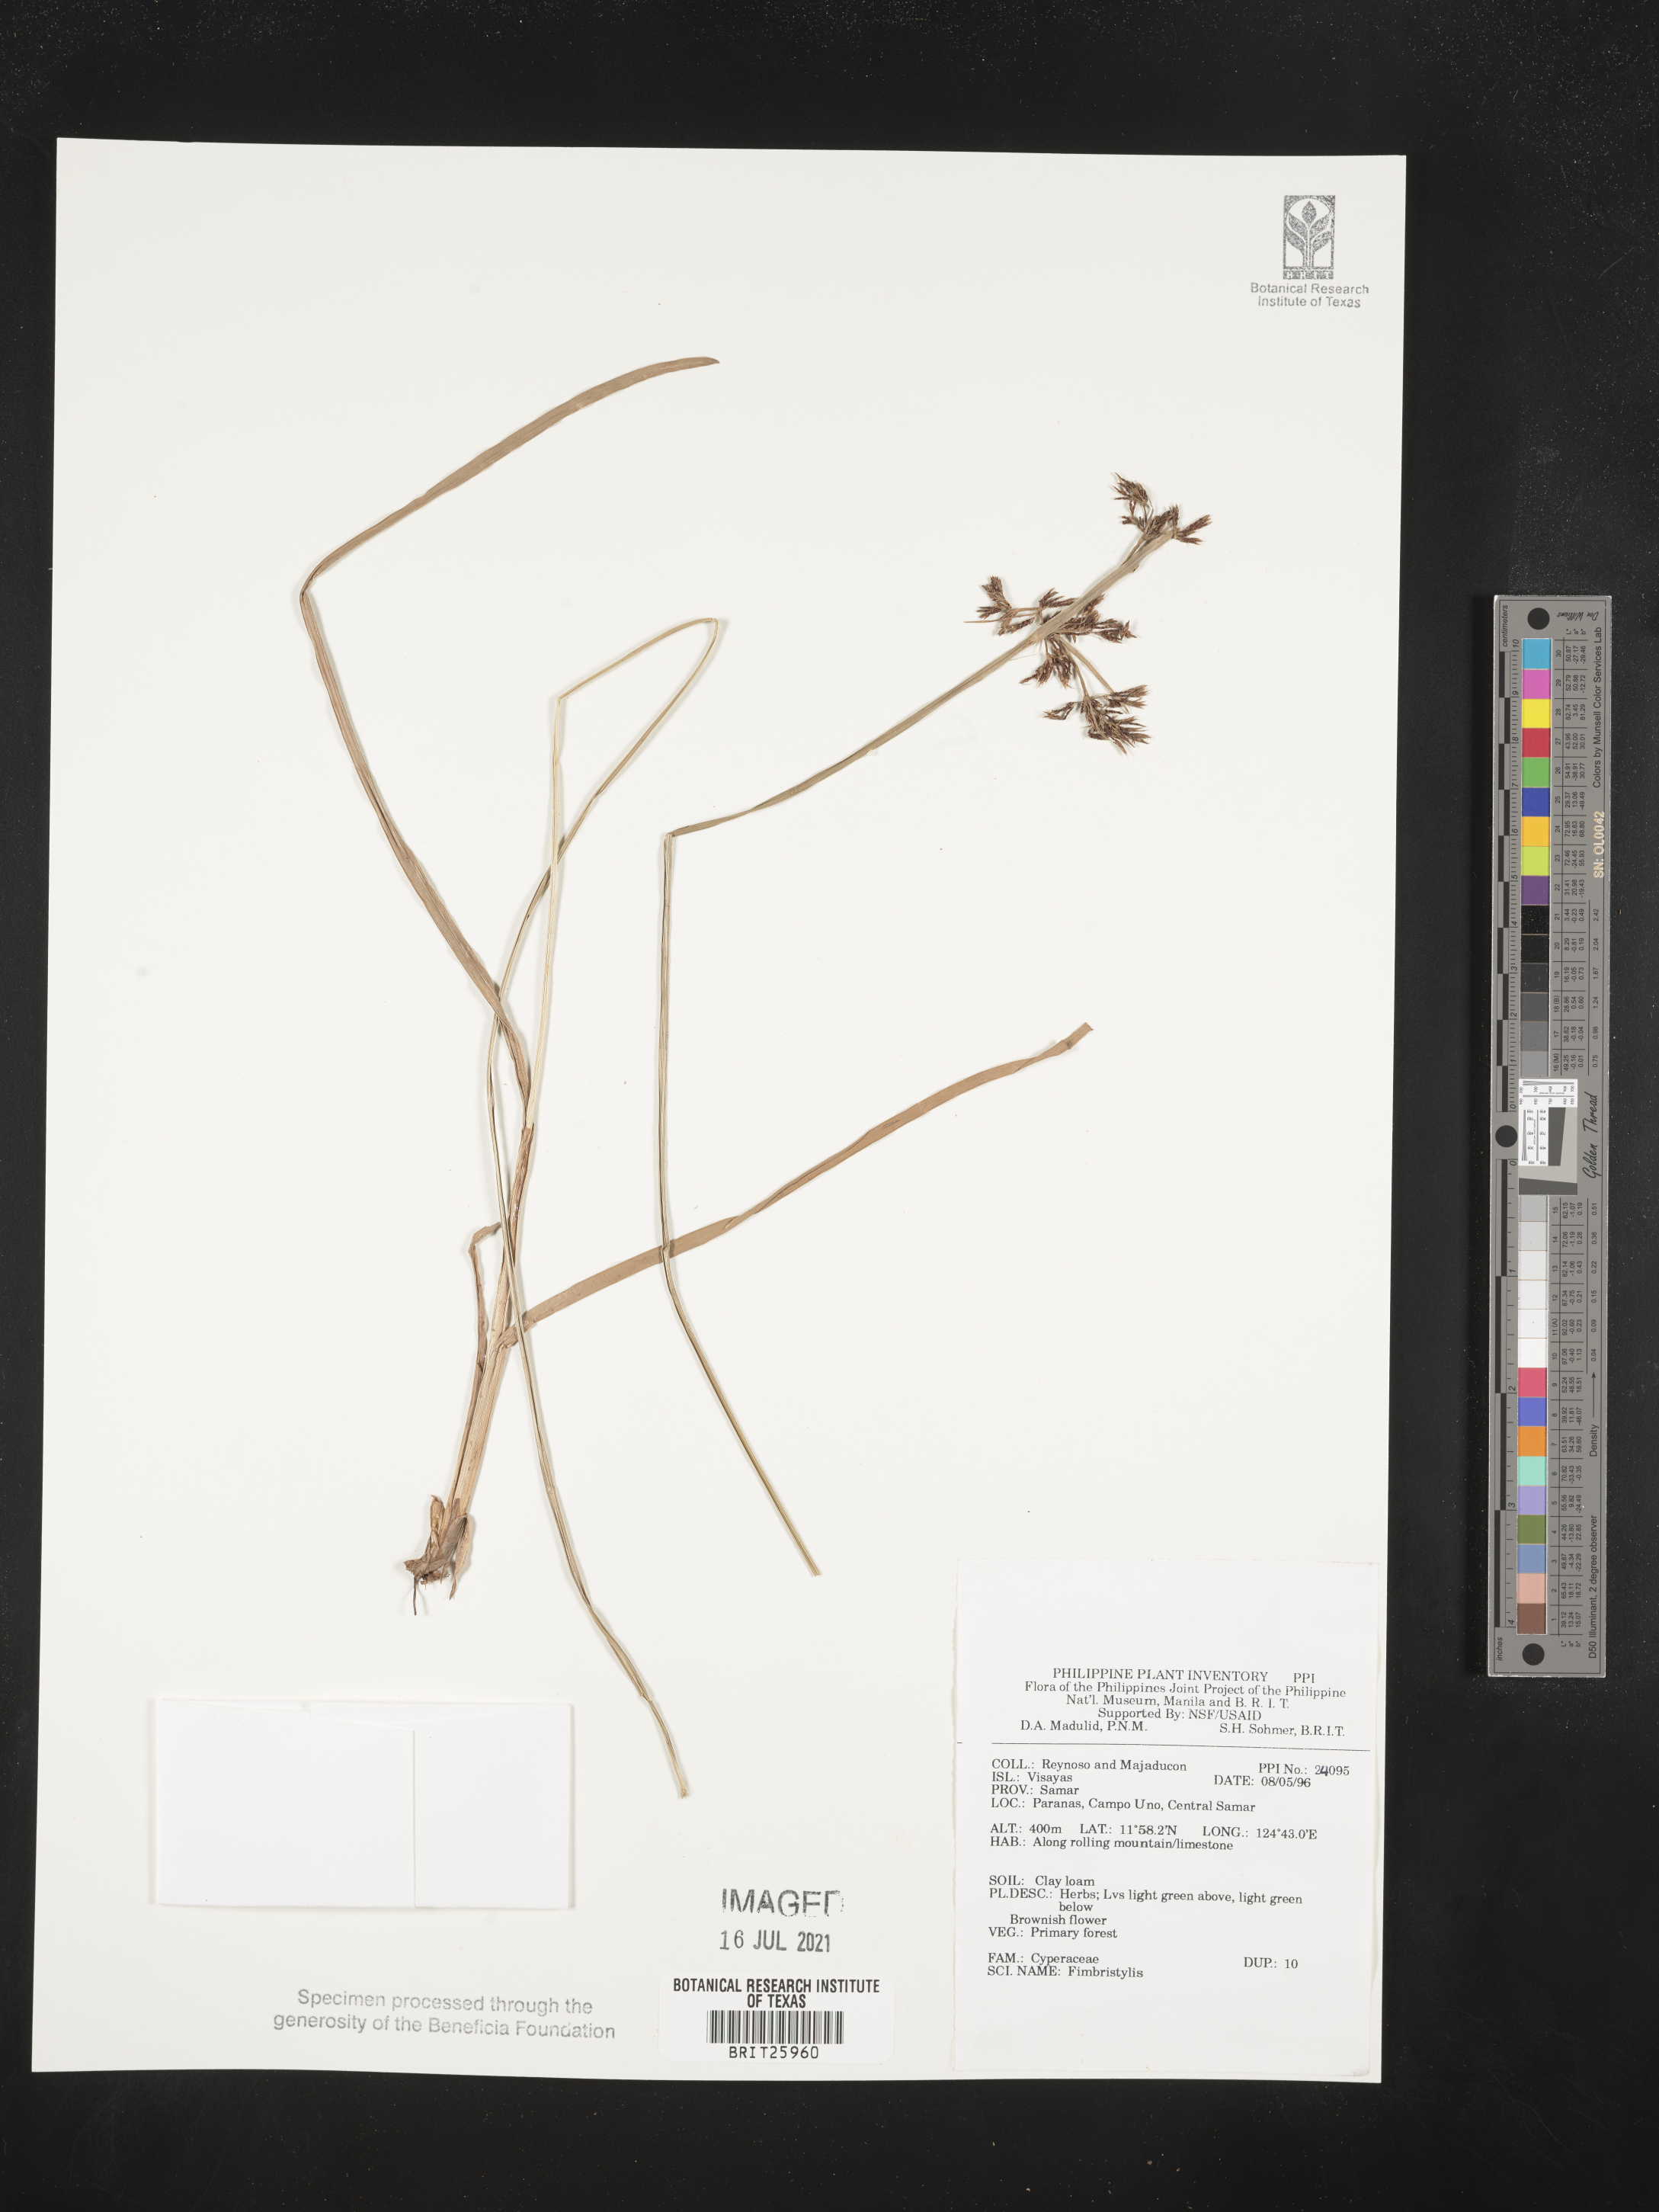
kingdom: Plantae
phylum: Tracheophyta
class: Liliopsida
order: Poales
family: Cyperaceae
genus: Fimbristylis
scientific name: Fimbristylis
